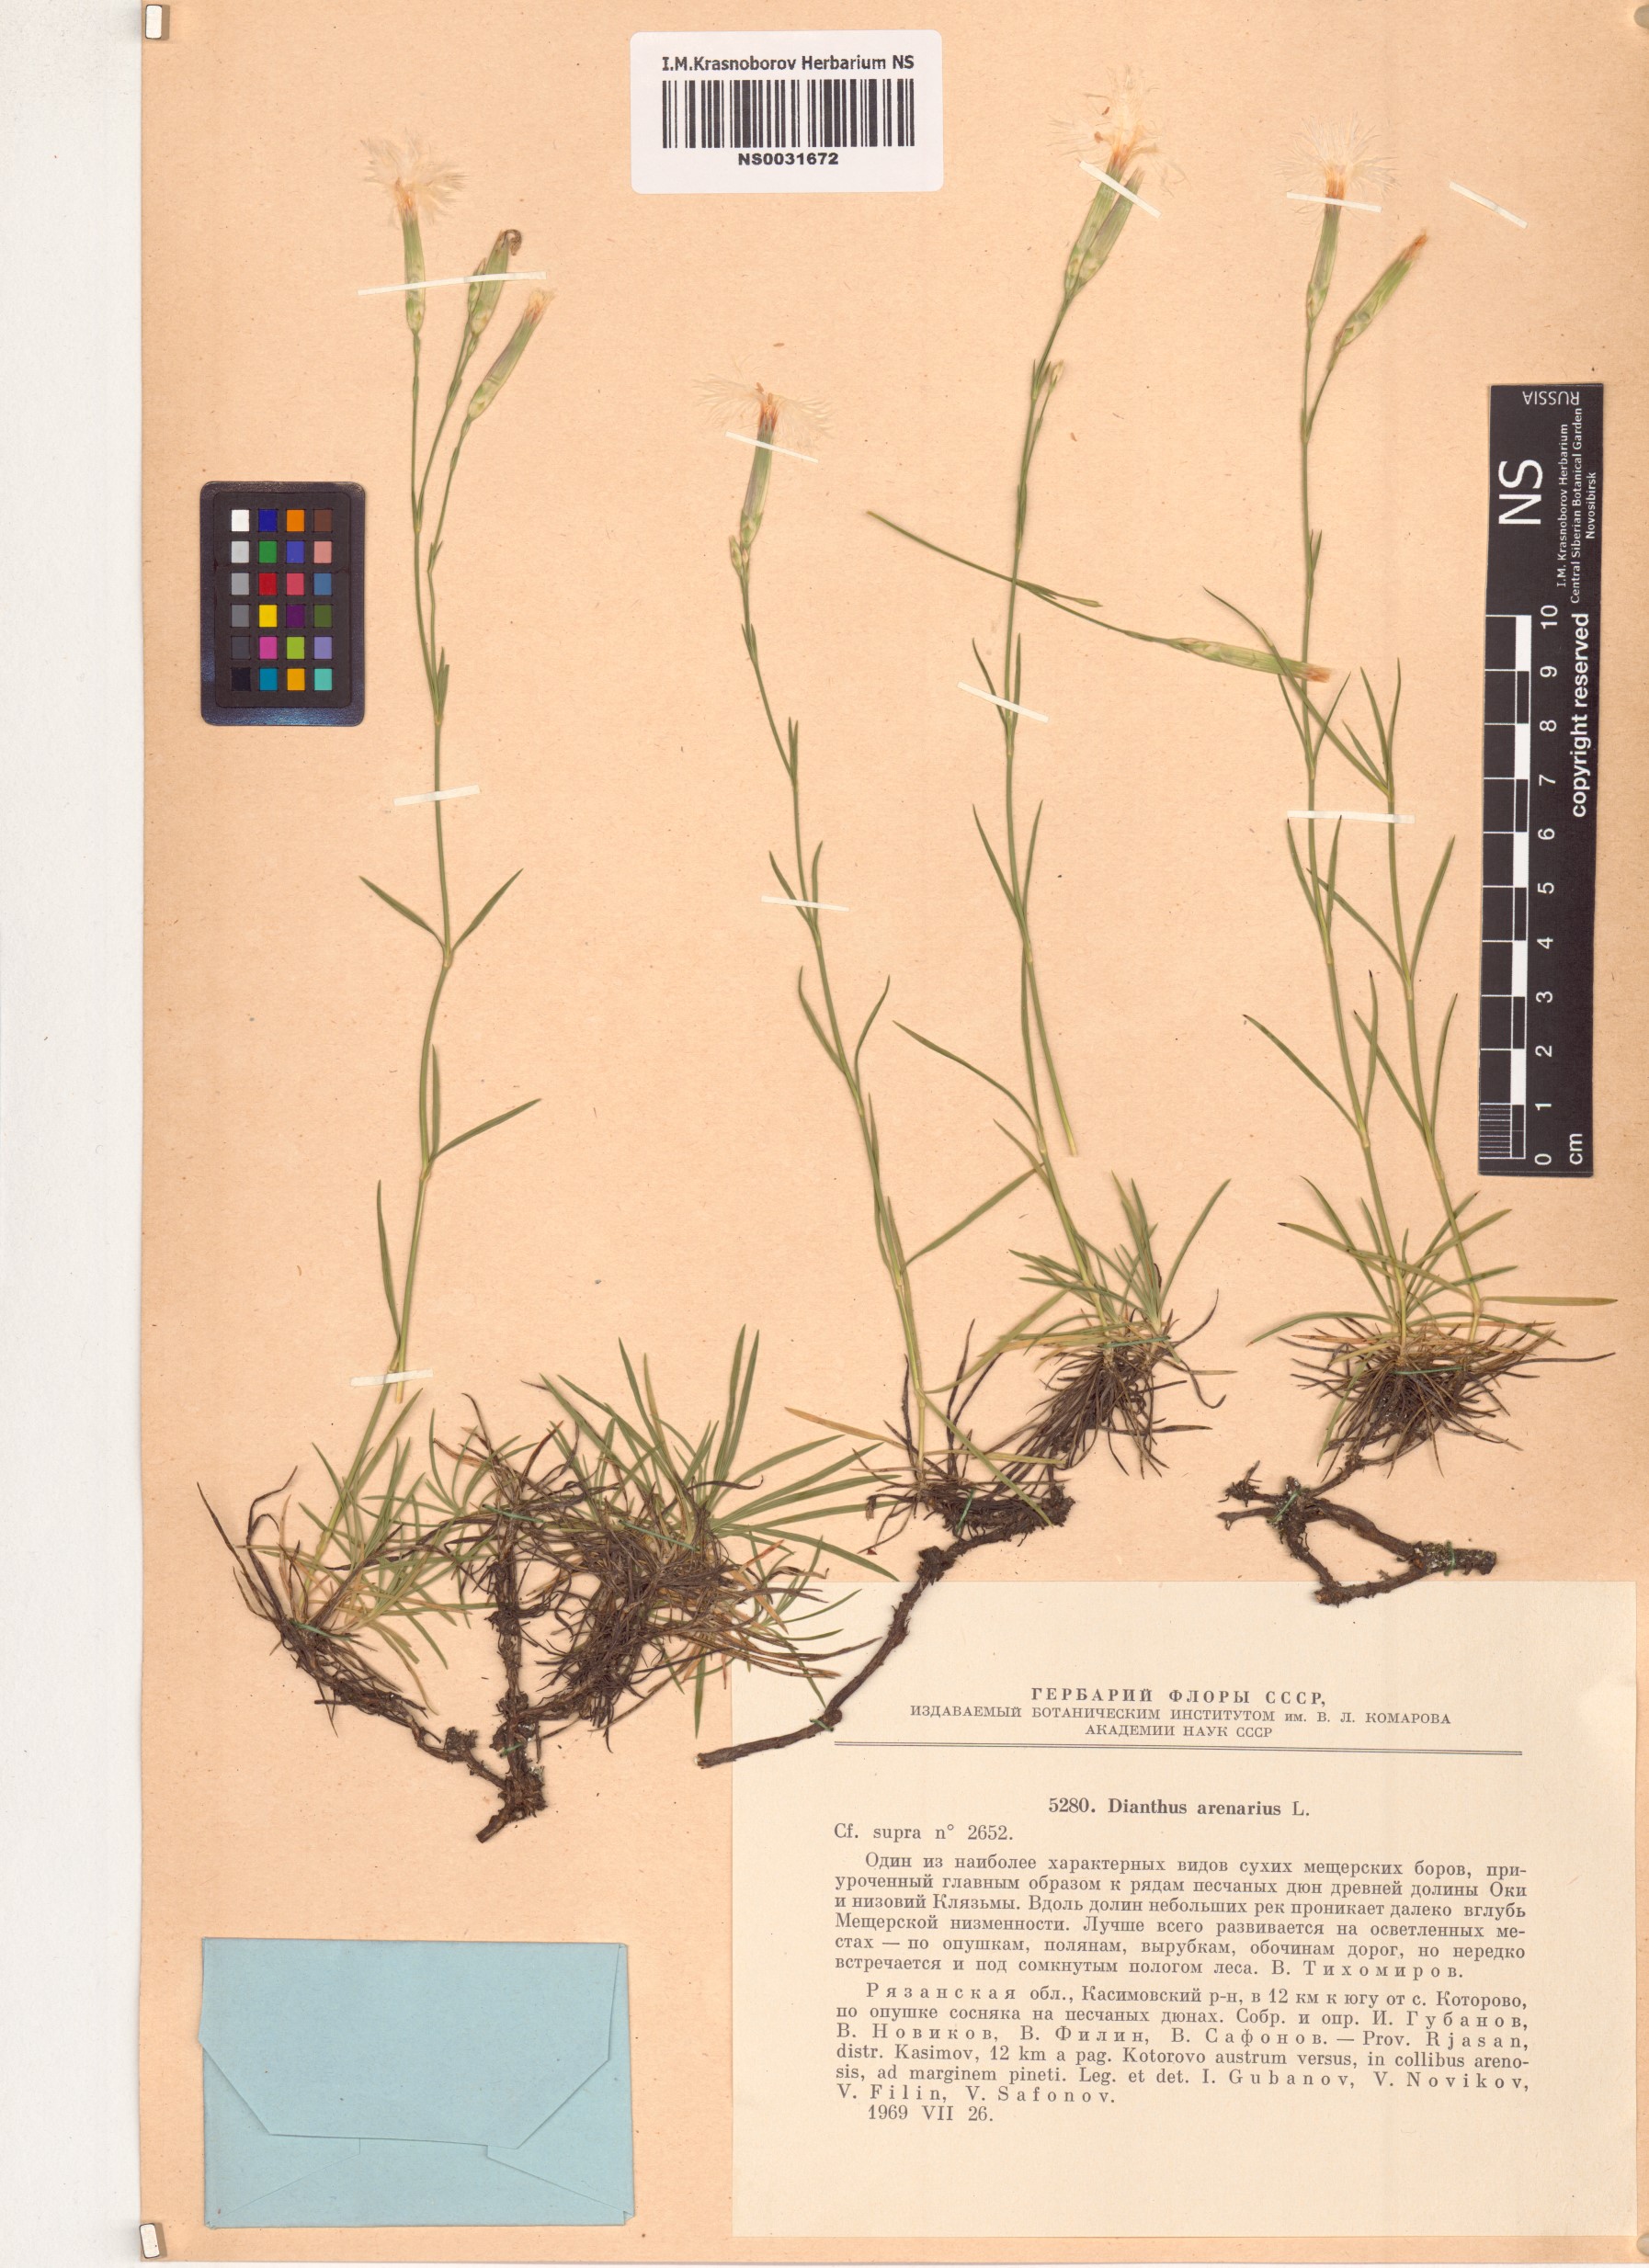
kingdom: Plantae
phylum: Tracheophyta
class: Magnoliopsida
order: Caryophyllales
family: Caryophyllaceae
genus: Dianthus
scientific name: Dianthus arenarius
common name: Stone pink
